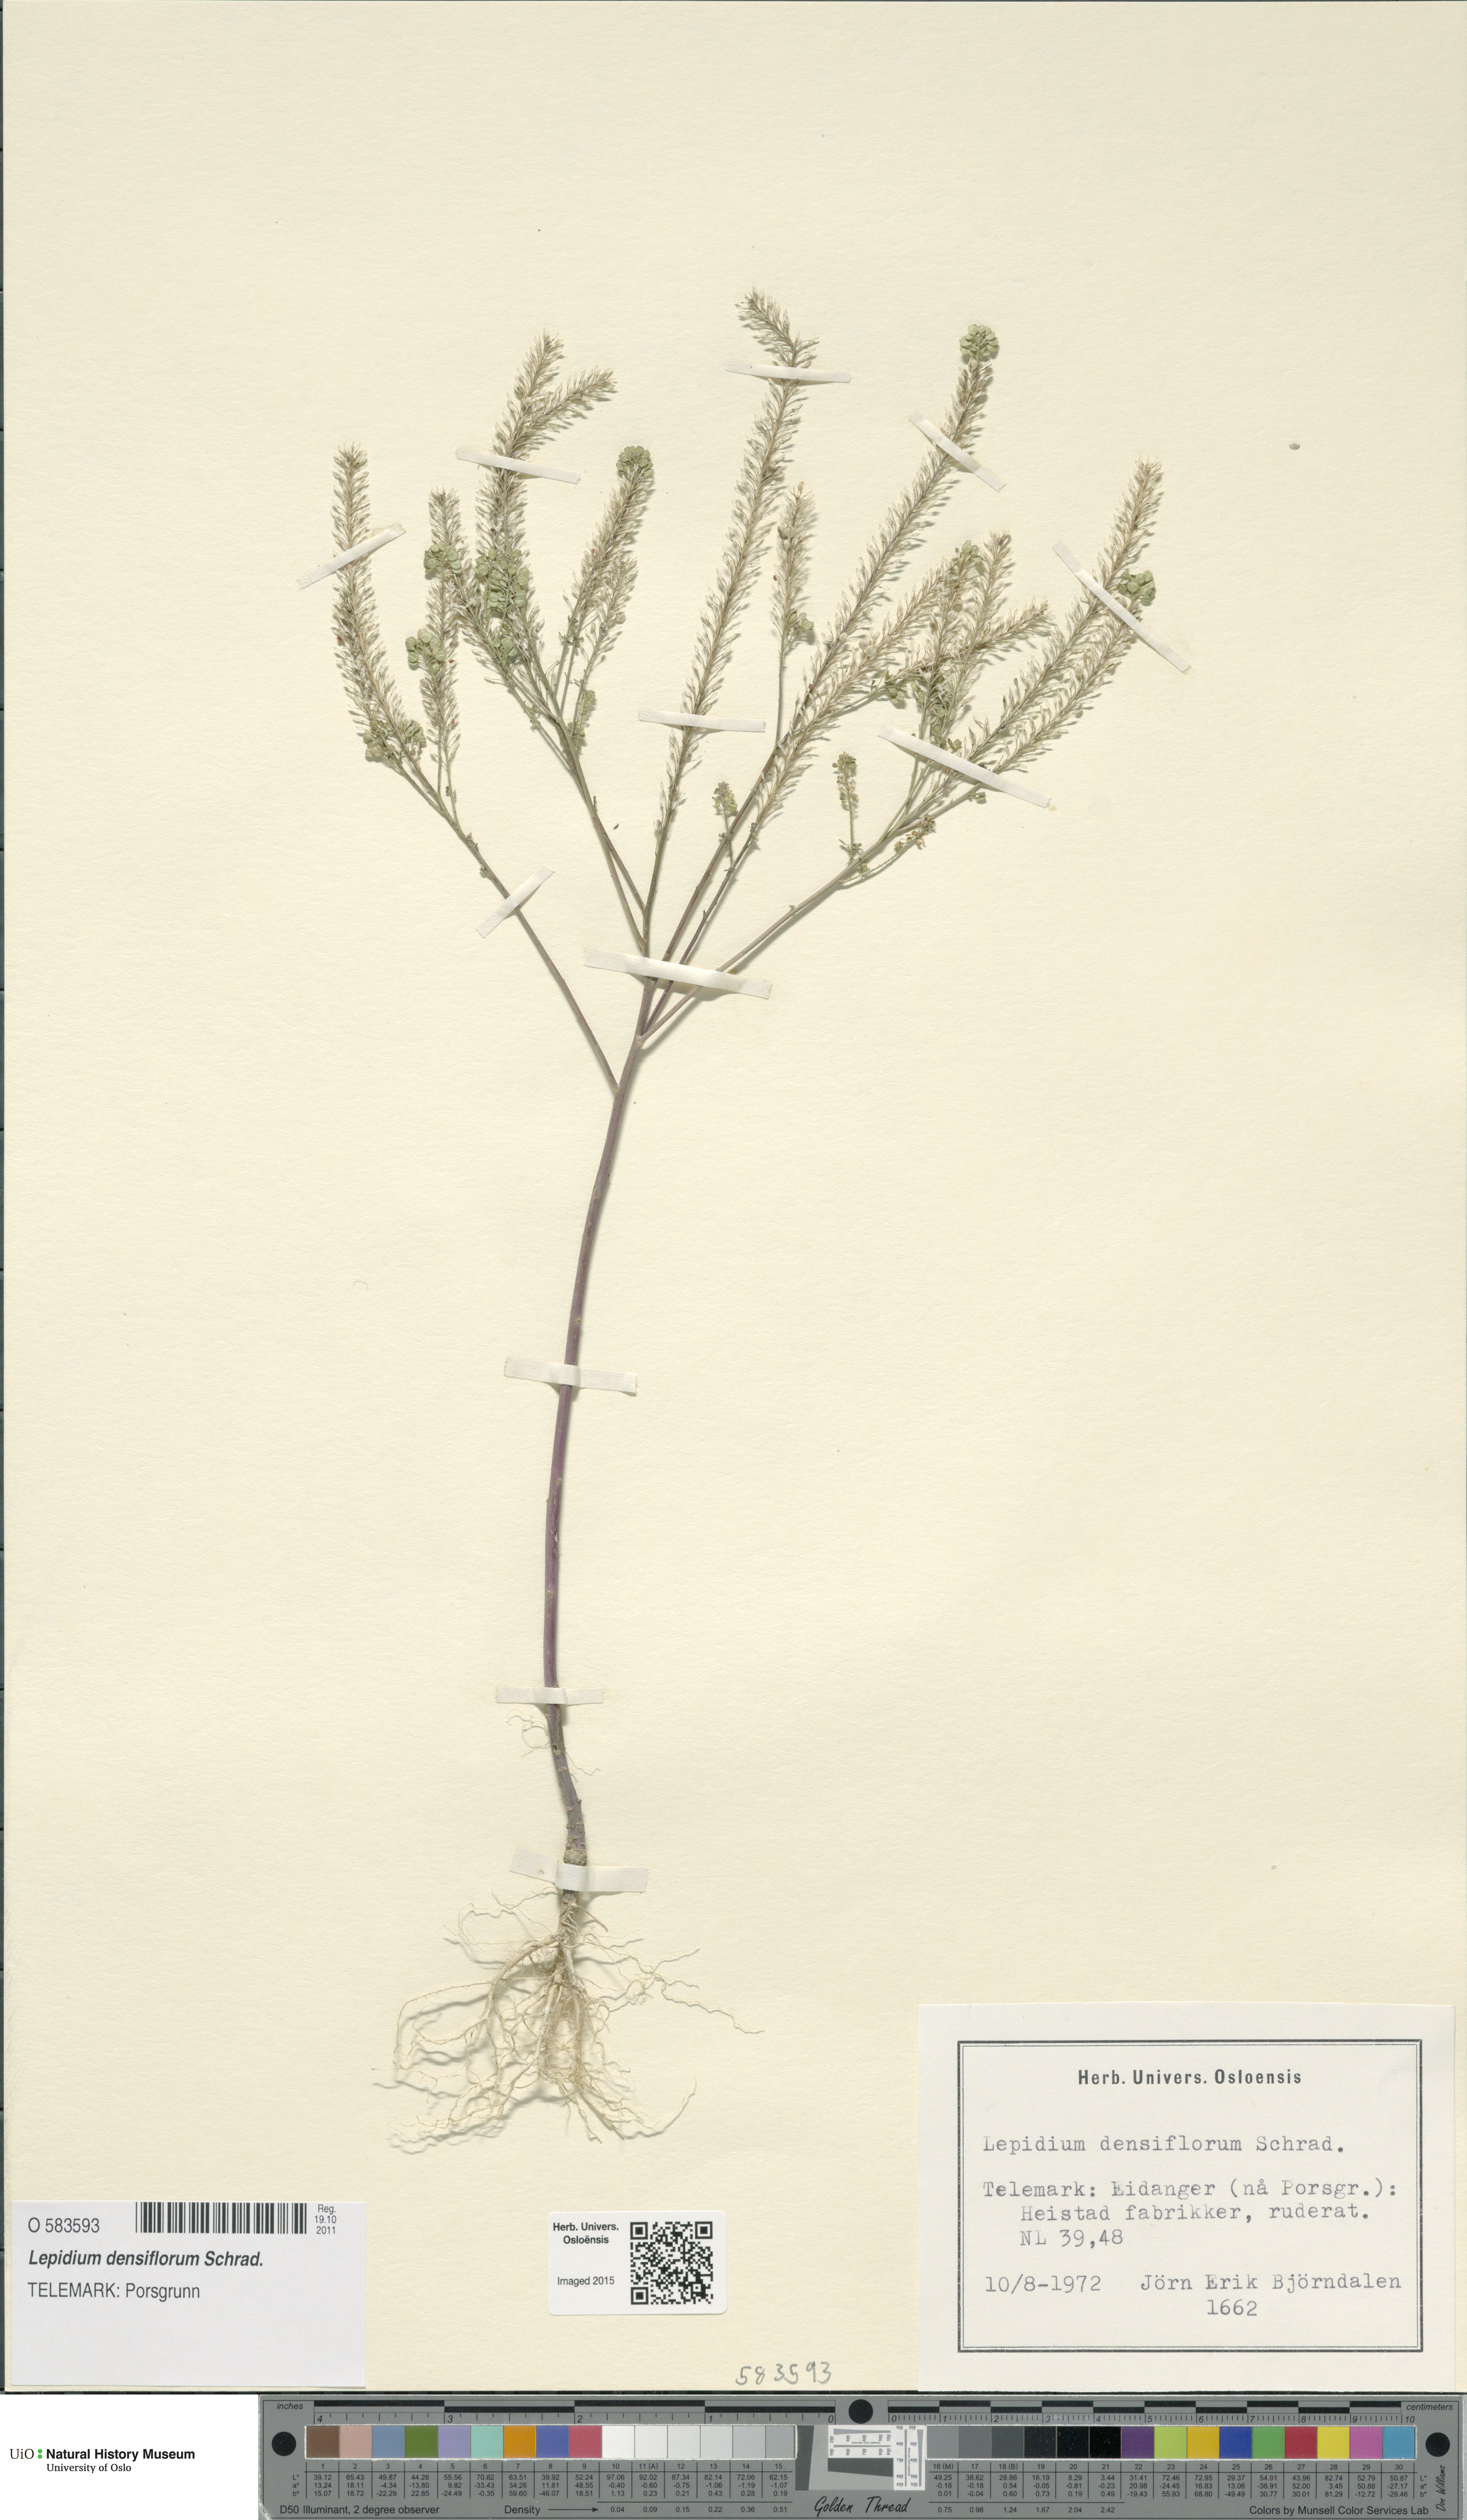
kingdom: Plantae
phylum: Tracheophyta
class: Magnoliopsida
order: Brassicales
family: Brassicaceae
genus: Lepidium
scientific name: Lepidium densiflorum
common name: Miner's pepperwort
